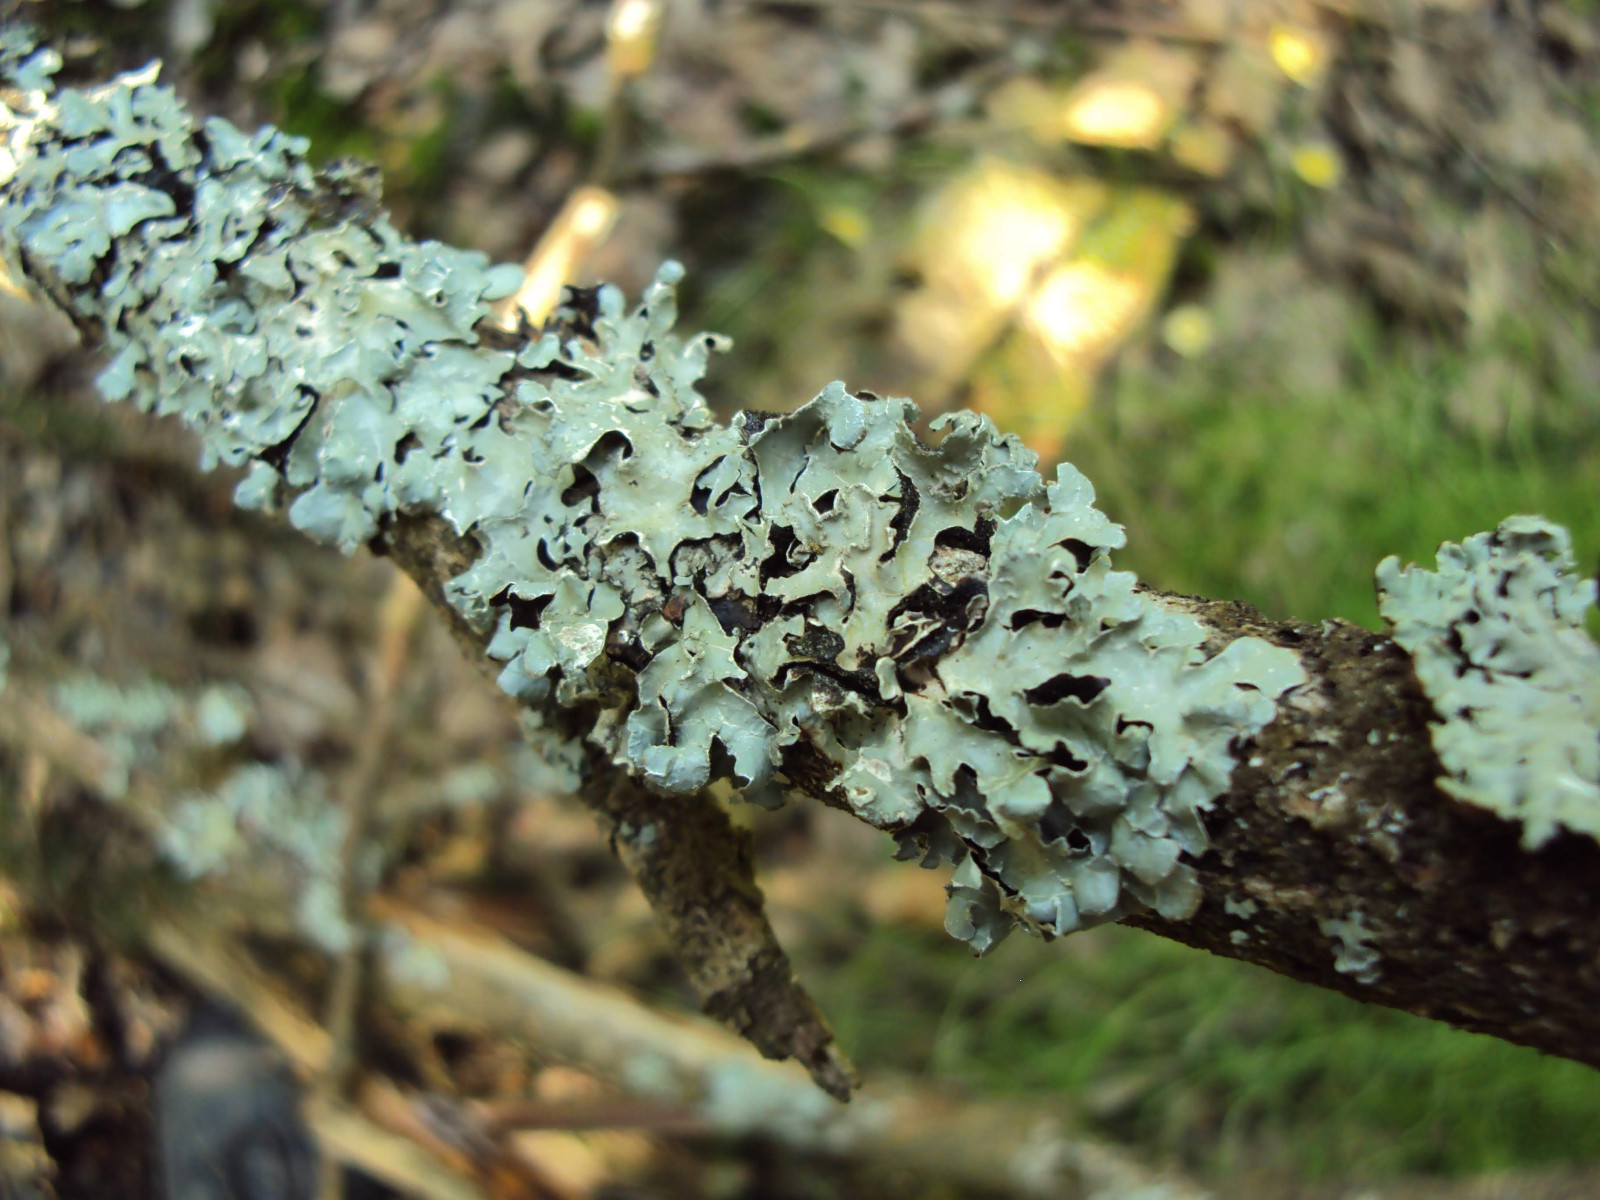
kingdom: Fungi
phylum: Ascomycota
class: Lecanoromycetes
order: Lecanorales
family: Parmeliaceae
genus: Parmelia
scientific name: Parmelia sulcata
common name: rynket skållav
